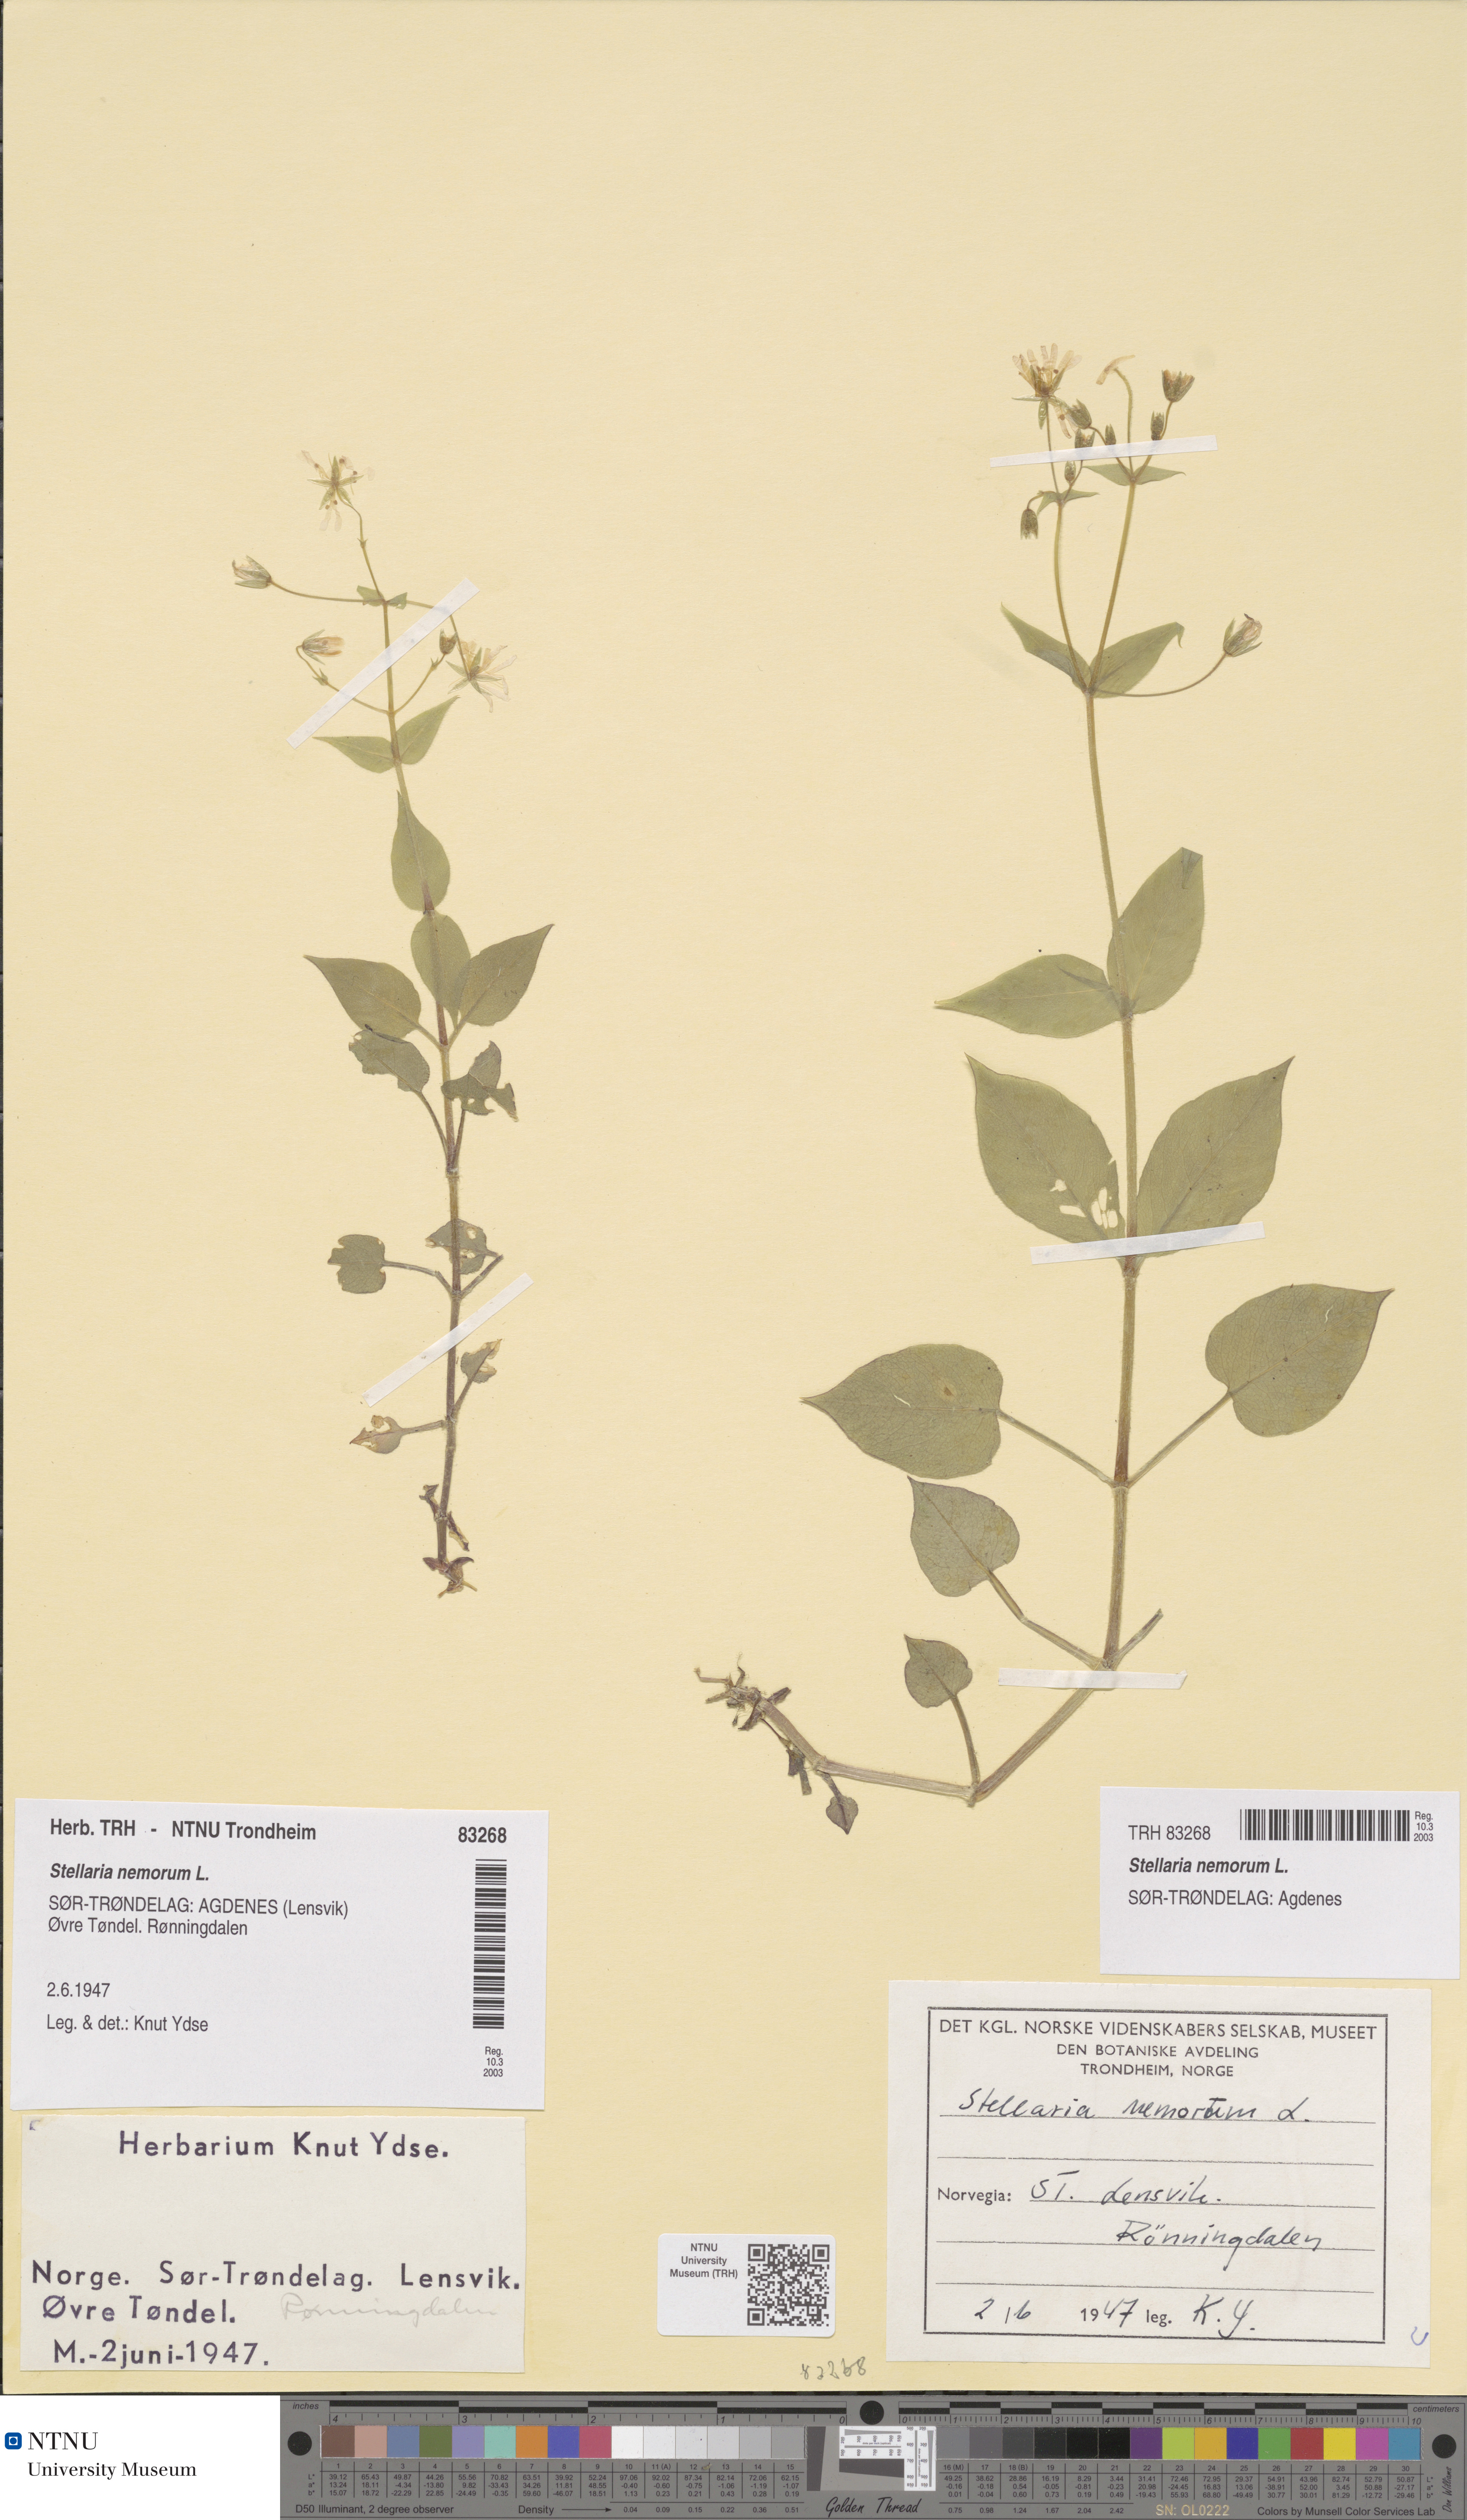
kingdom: Plantae
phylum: Tracheophyta
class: Magnoliopsida
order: Caryophyllales
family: Caryophyllaceae
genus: Stellaria
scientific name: Stellaria nemorum
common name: Wood stitchwort
